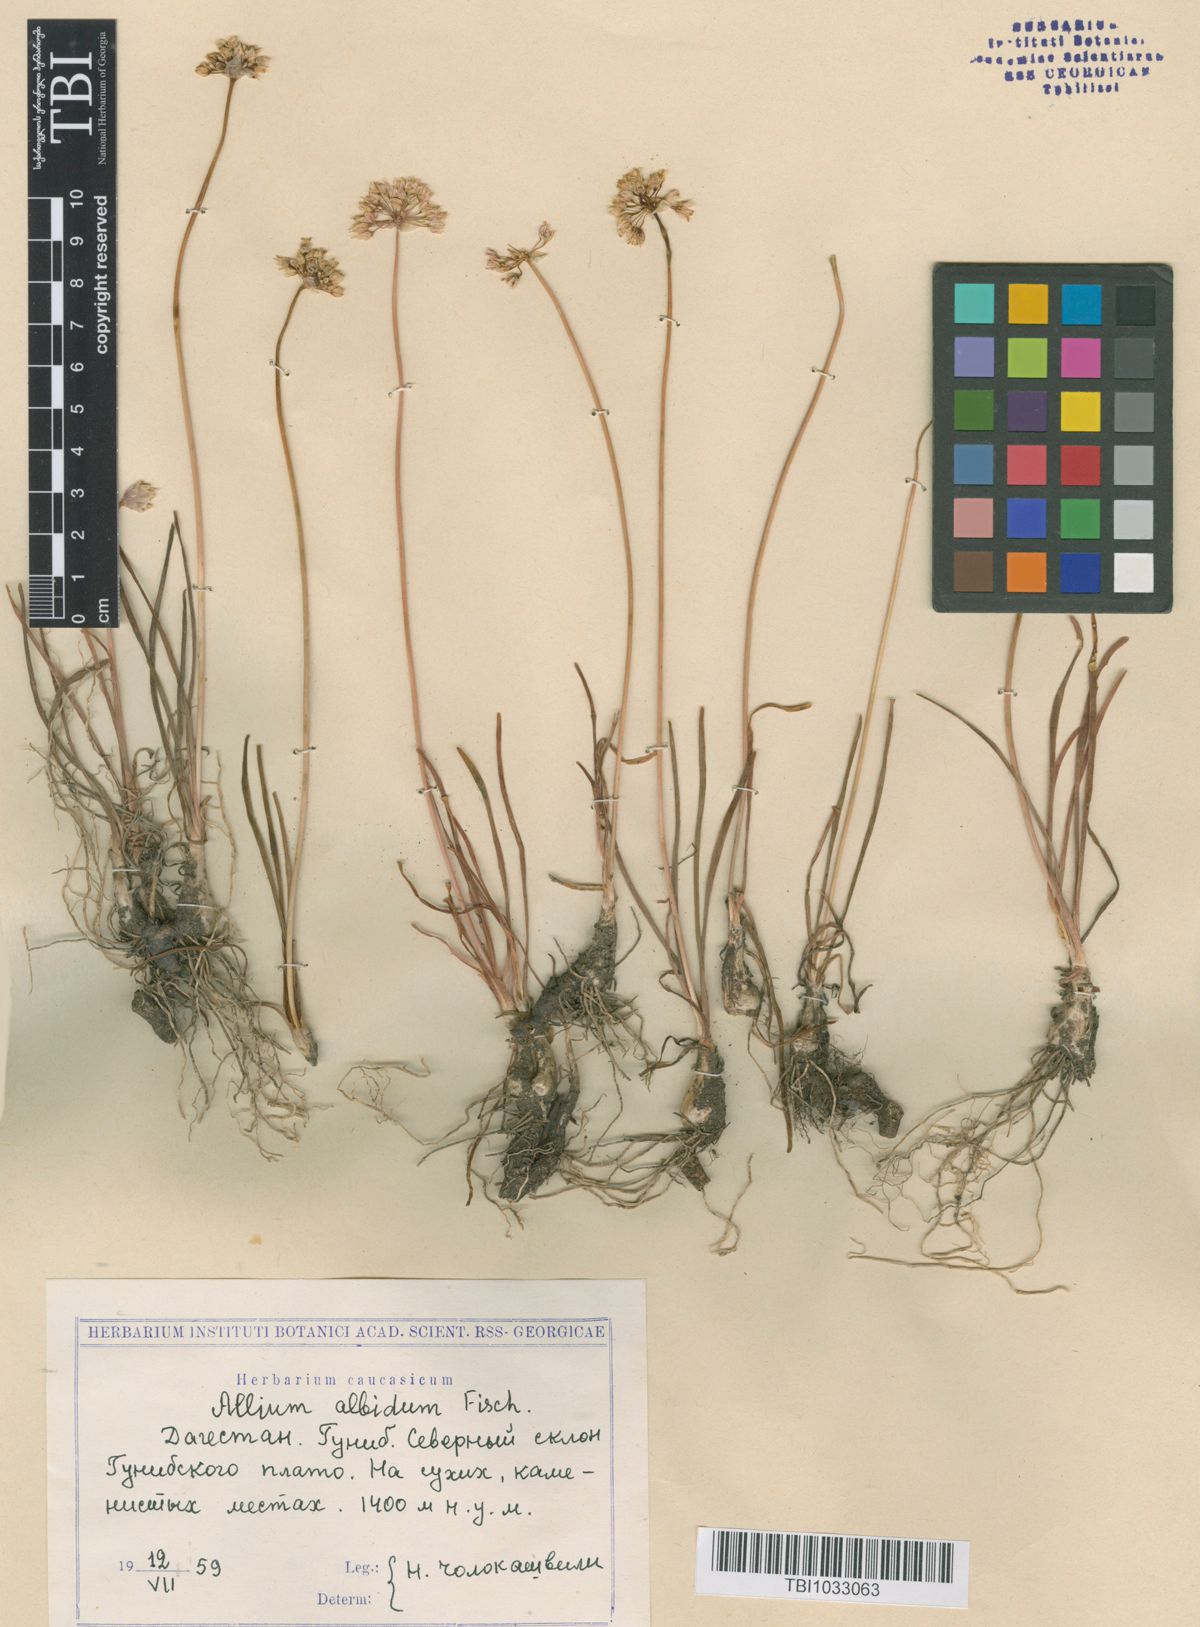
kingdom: Plantae
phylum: Tracheophyta
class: Liliopsida
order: Asparagales
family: Amaryllidaceae
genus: Allium
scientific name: Allium denudatum
